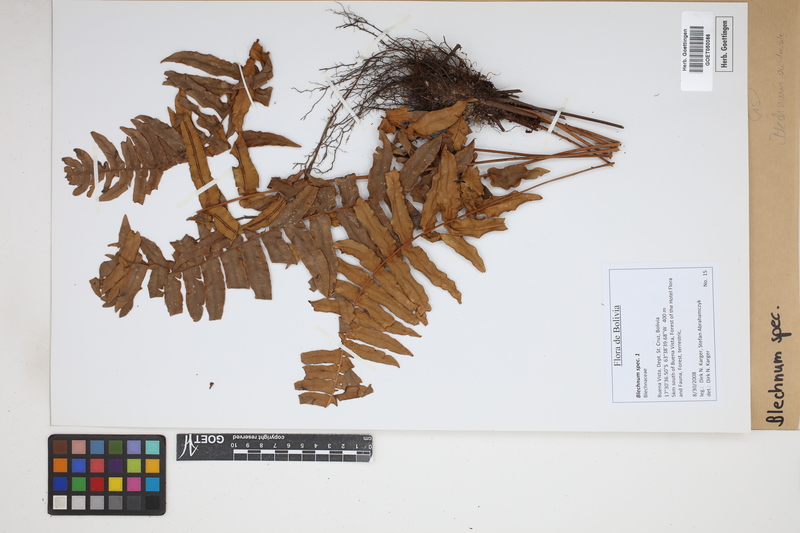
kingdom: Plantae
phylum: Tracheophyta
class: Polypodiopsida
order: Polypodiales
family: Blechnaceae
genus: Blechnum
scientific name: Blechnum
